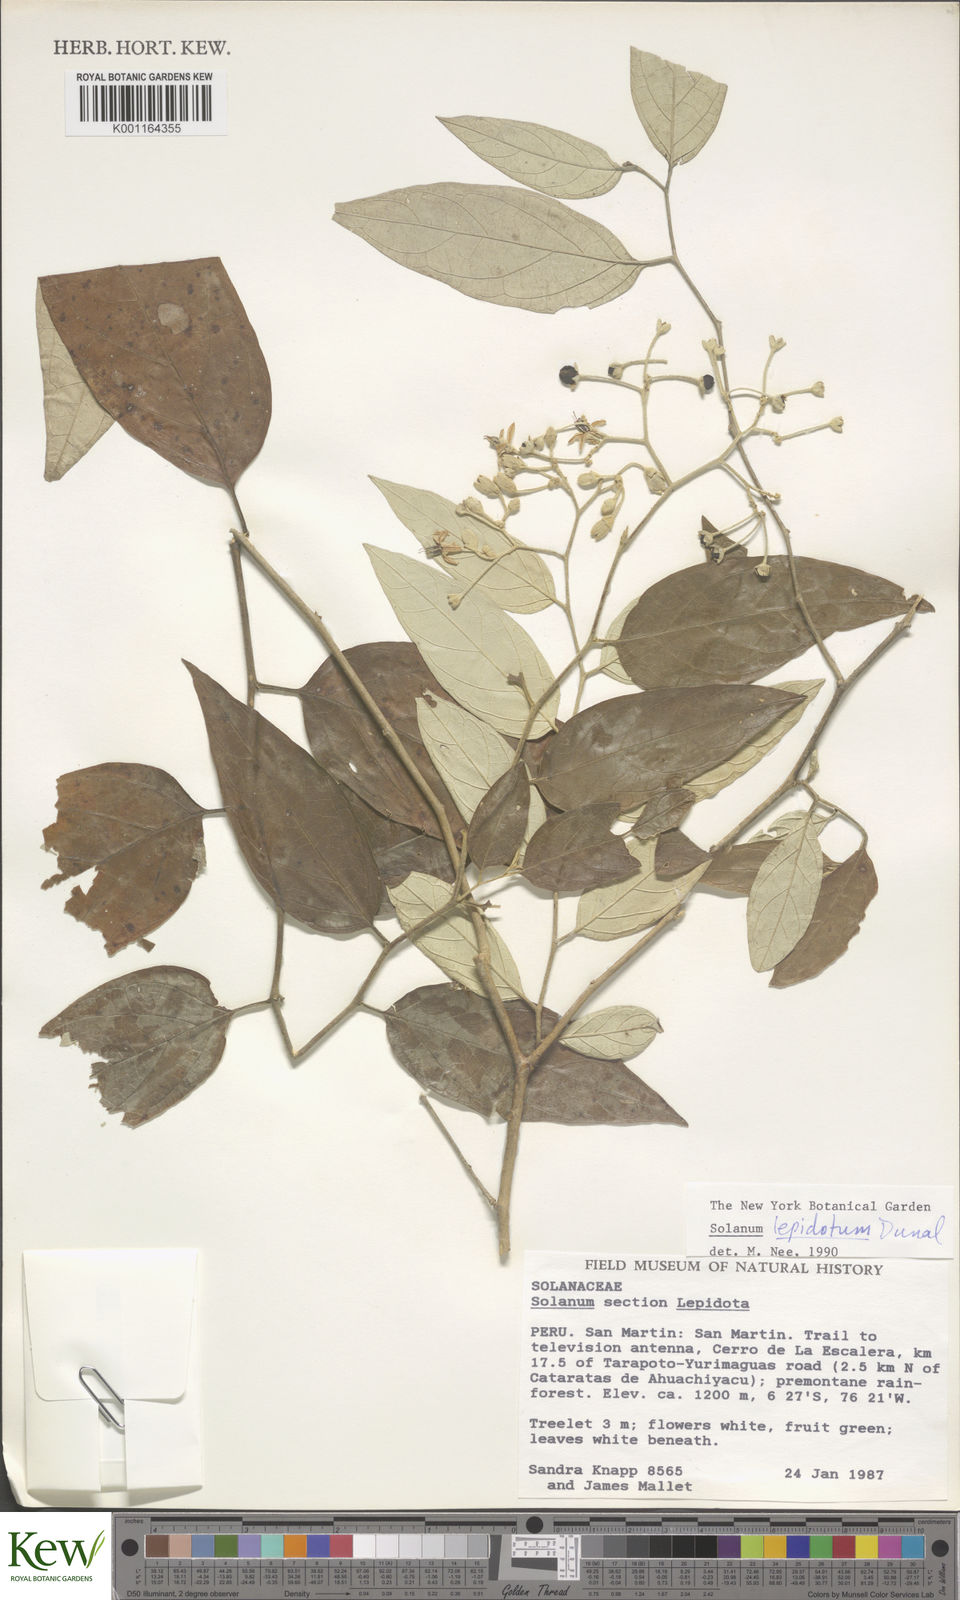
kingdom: Plantae
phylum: Tracheophyta
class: Magnoliopsida
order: Solanales
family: Solanaceae
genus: Solanum
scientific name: Solanum lepidotum
